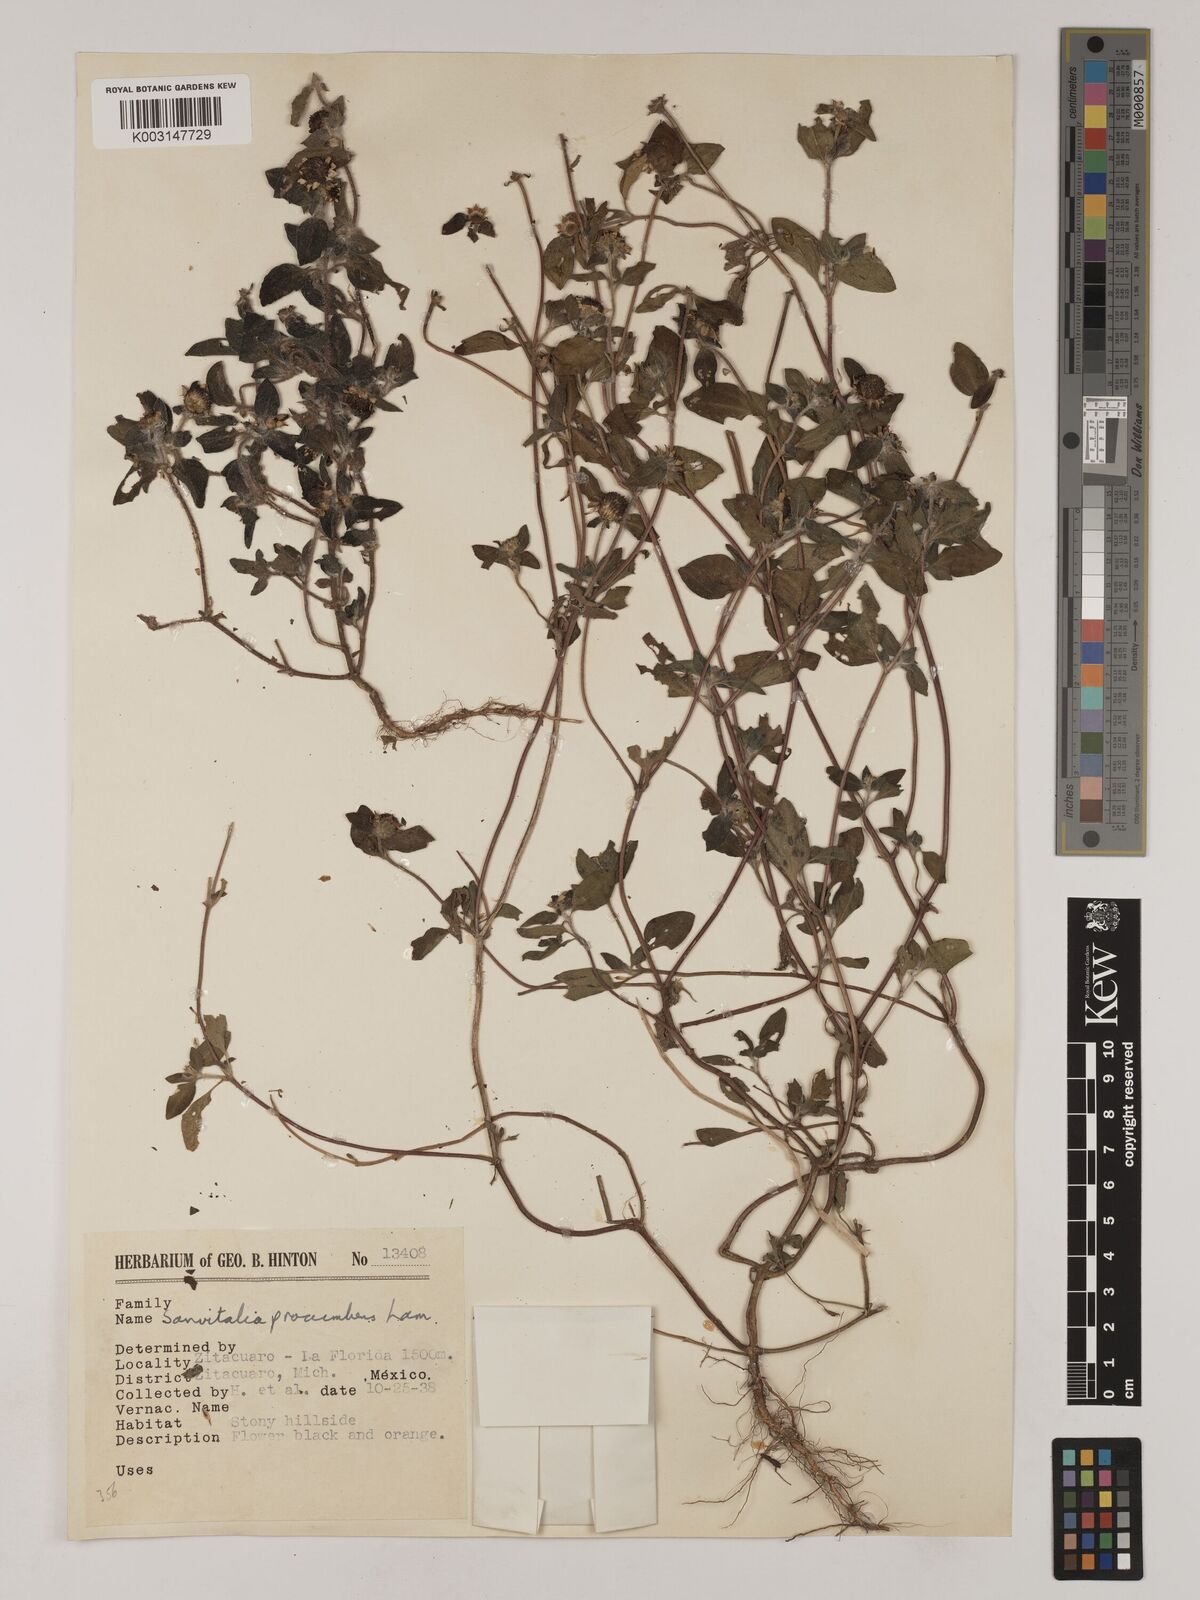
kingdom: Plantae
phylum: Tracheophyta
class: Magnoliopsida
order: Asterales
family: Asteraceae
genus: Sanvitalia
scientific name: Sanvitalia procumbens
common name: Mexican creeping zinnia
